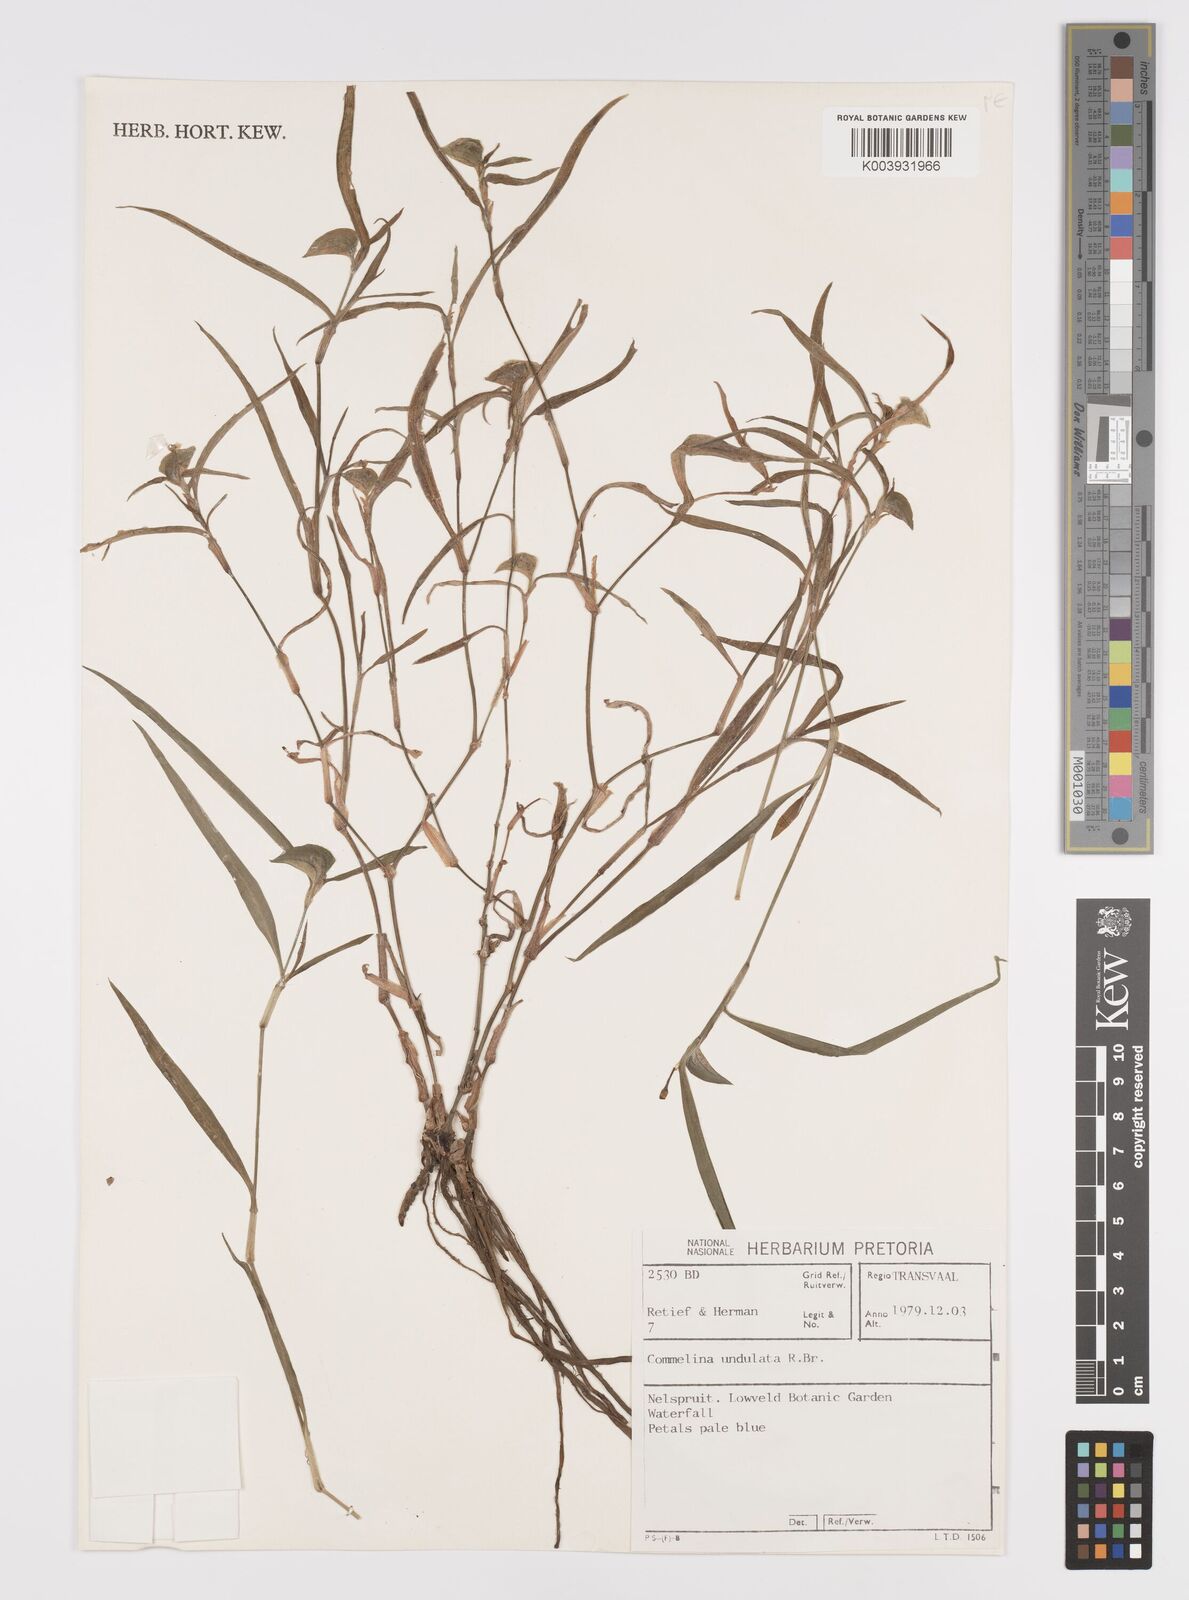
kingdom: Plantae
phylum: Tracheophyta
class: Liliopsida
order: Commelinales
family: Commelinaceae
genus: Commelina
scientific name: Commelina erecta
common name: Blousel blommetjie
